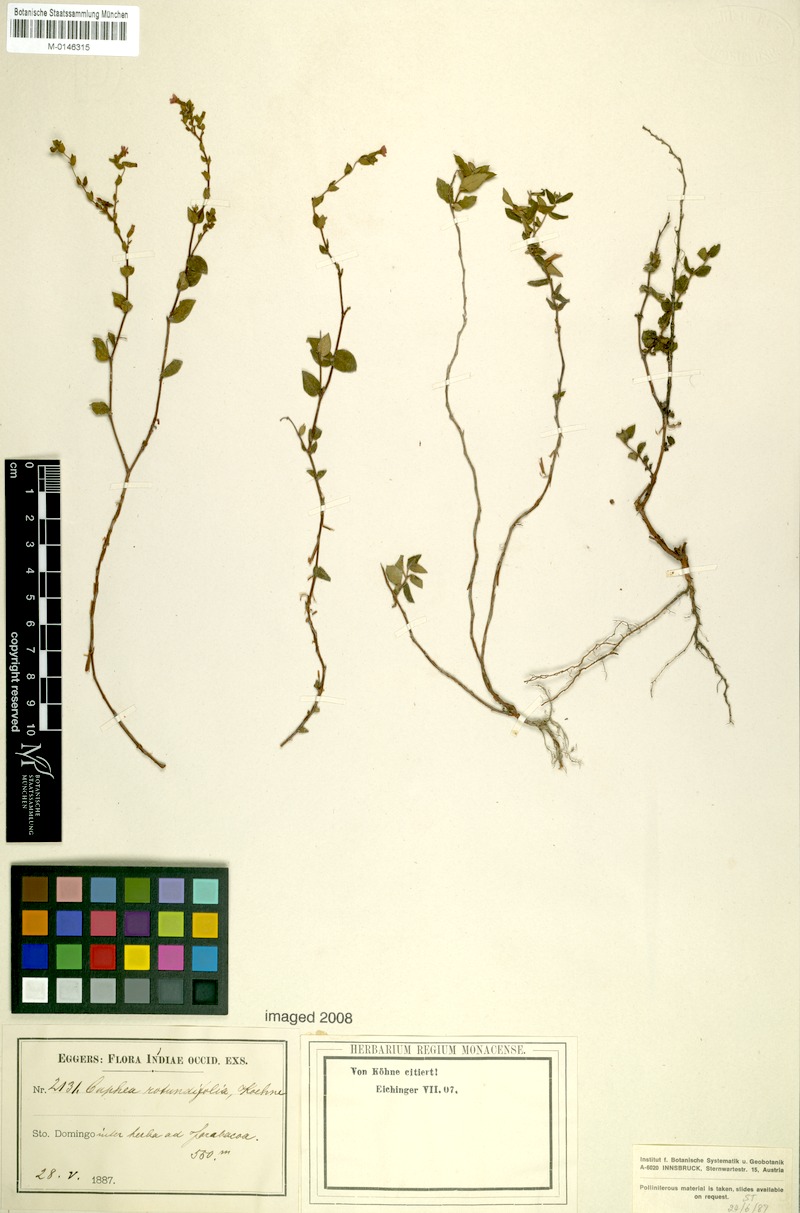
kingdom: Plantae
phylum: Tracheophyta
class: Magnoliopsida
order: Myrtales
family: Lythraceae
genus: Cuphea
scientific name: Cuphea melanium
